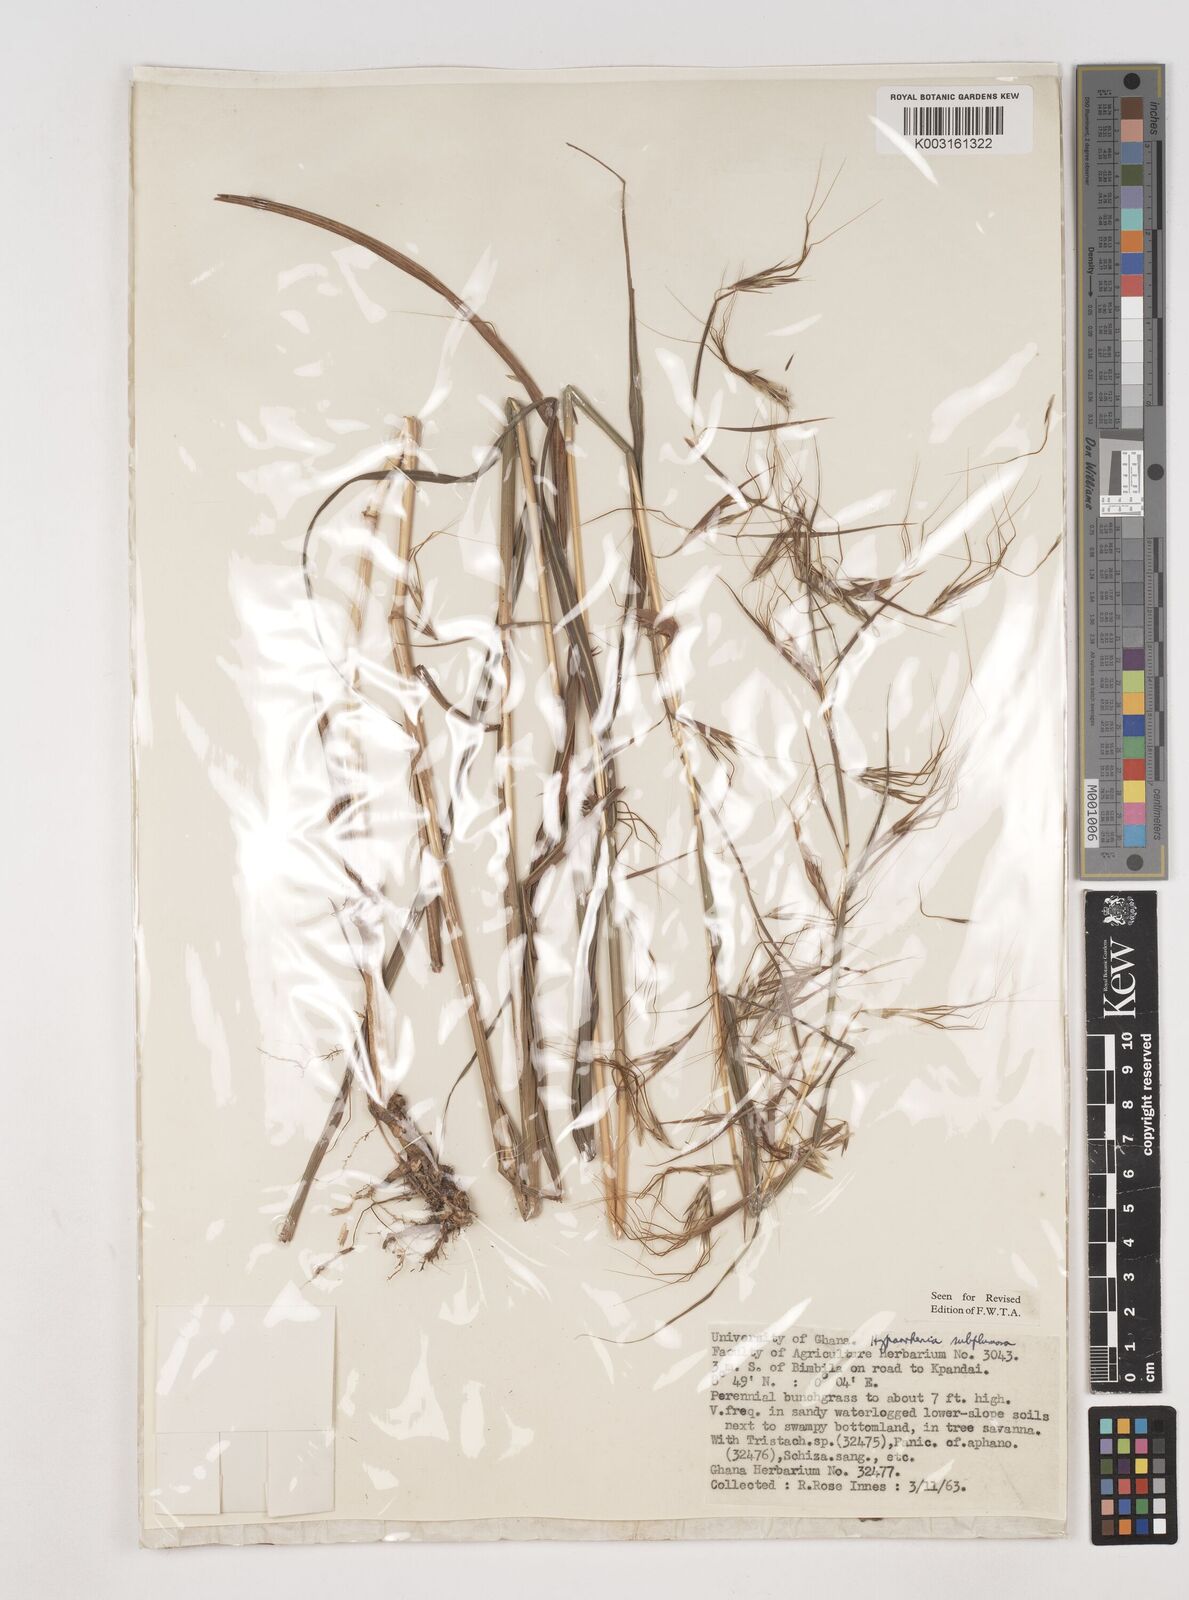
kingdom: Plantae
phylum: Tracheophyta
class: Liliopsida
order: Poales
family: Poaceae
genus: Hyparrhenia
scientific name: Hyparrhenia subplumosa
